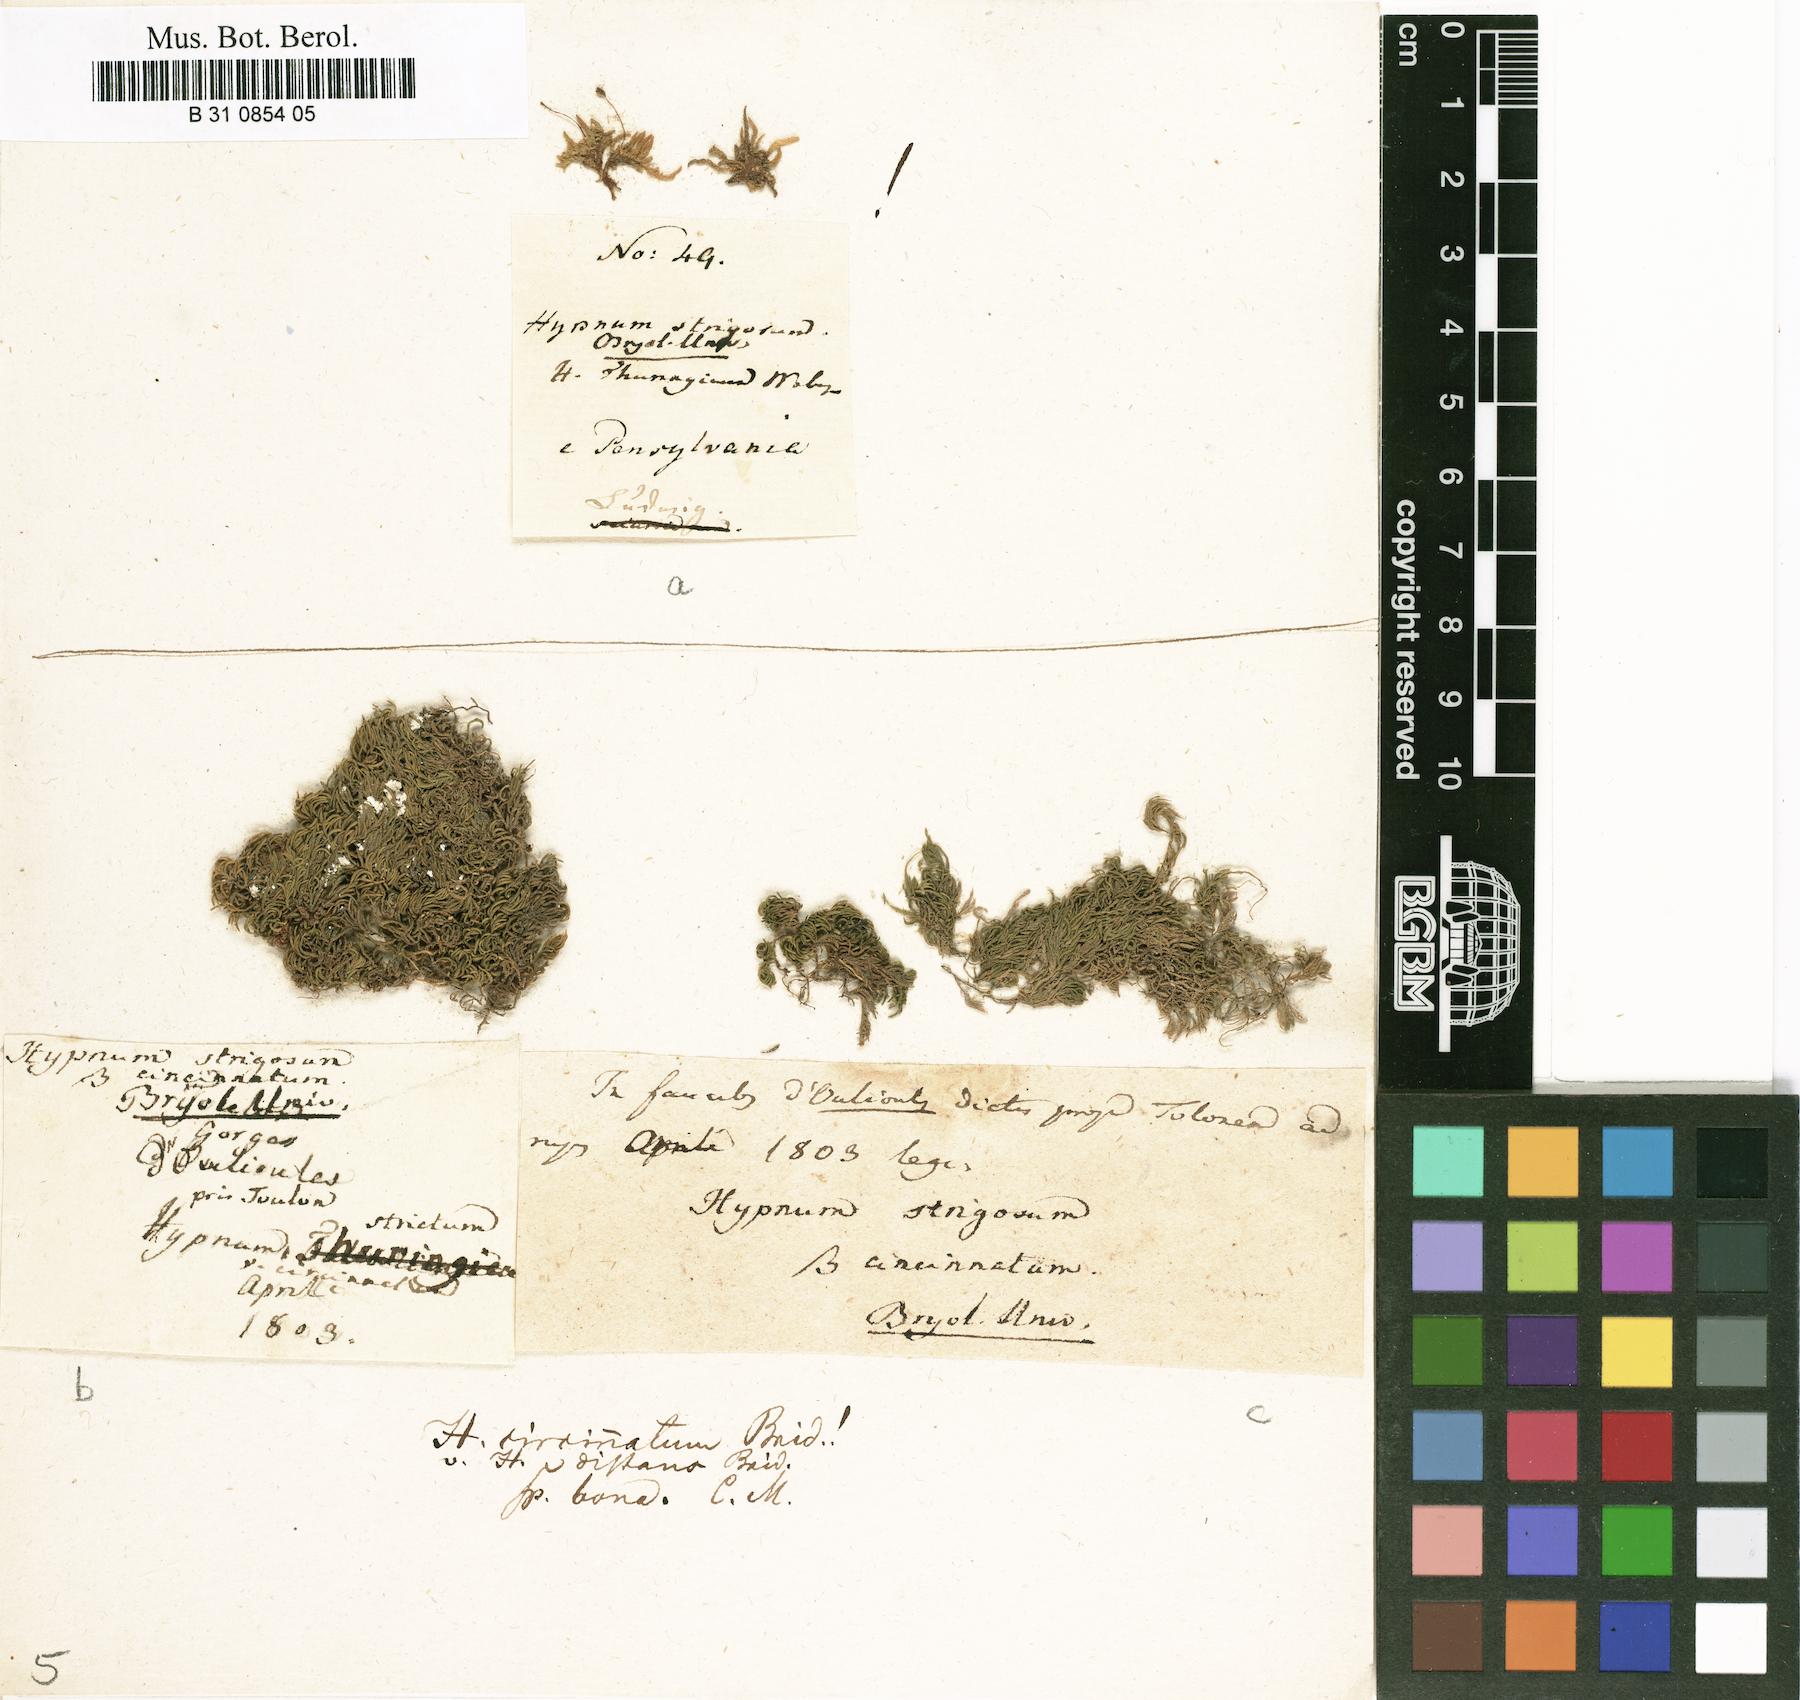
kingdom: Plantae
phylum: Bryophyta
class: Bryopsida
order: Hypnales
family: Brachytheciaceae
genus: Eurhynchiastrum
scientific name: Eurhynchiastrum pulchellum
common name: Elegant beaked moss
